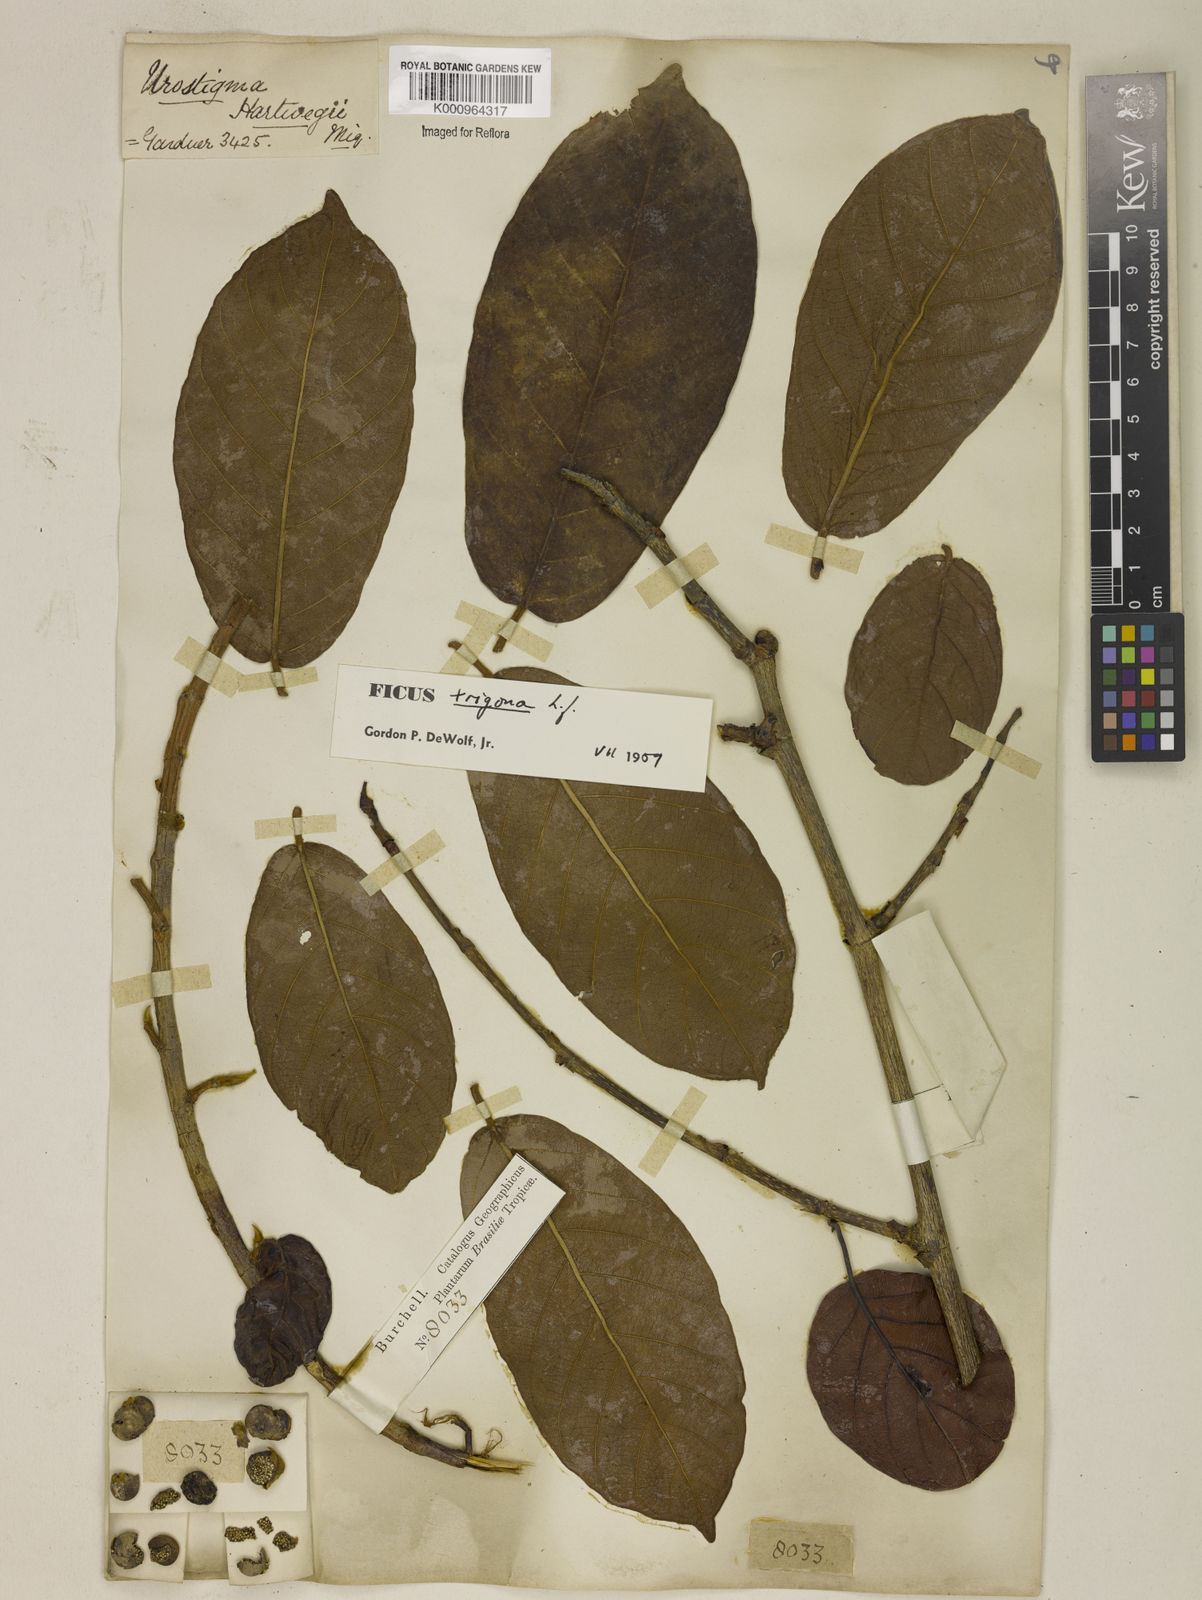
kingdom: Plantae
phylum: Tracheophyta
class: Magnoliopsida
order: Rosales
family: Moraceae
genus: Ficus
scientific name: Ficus trigona
